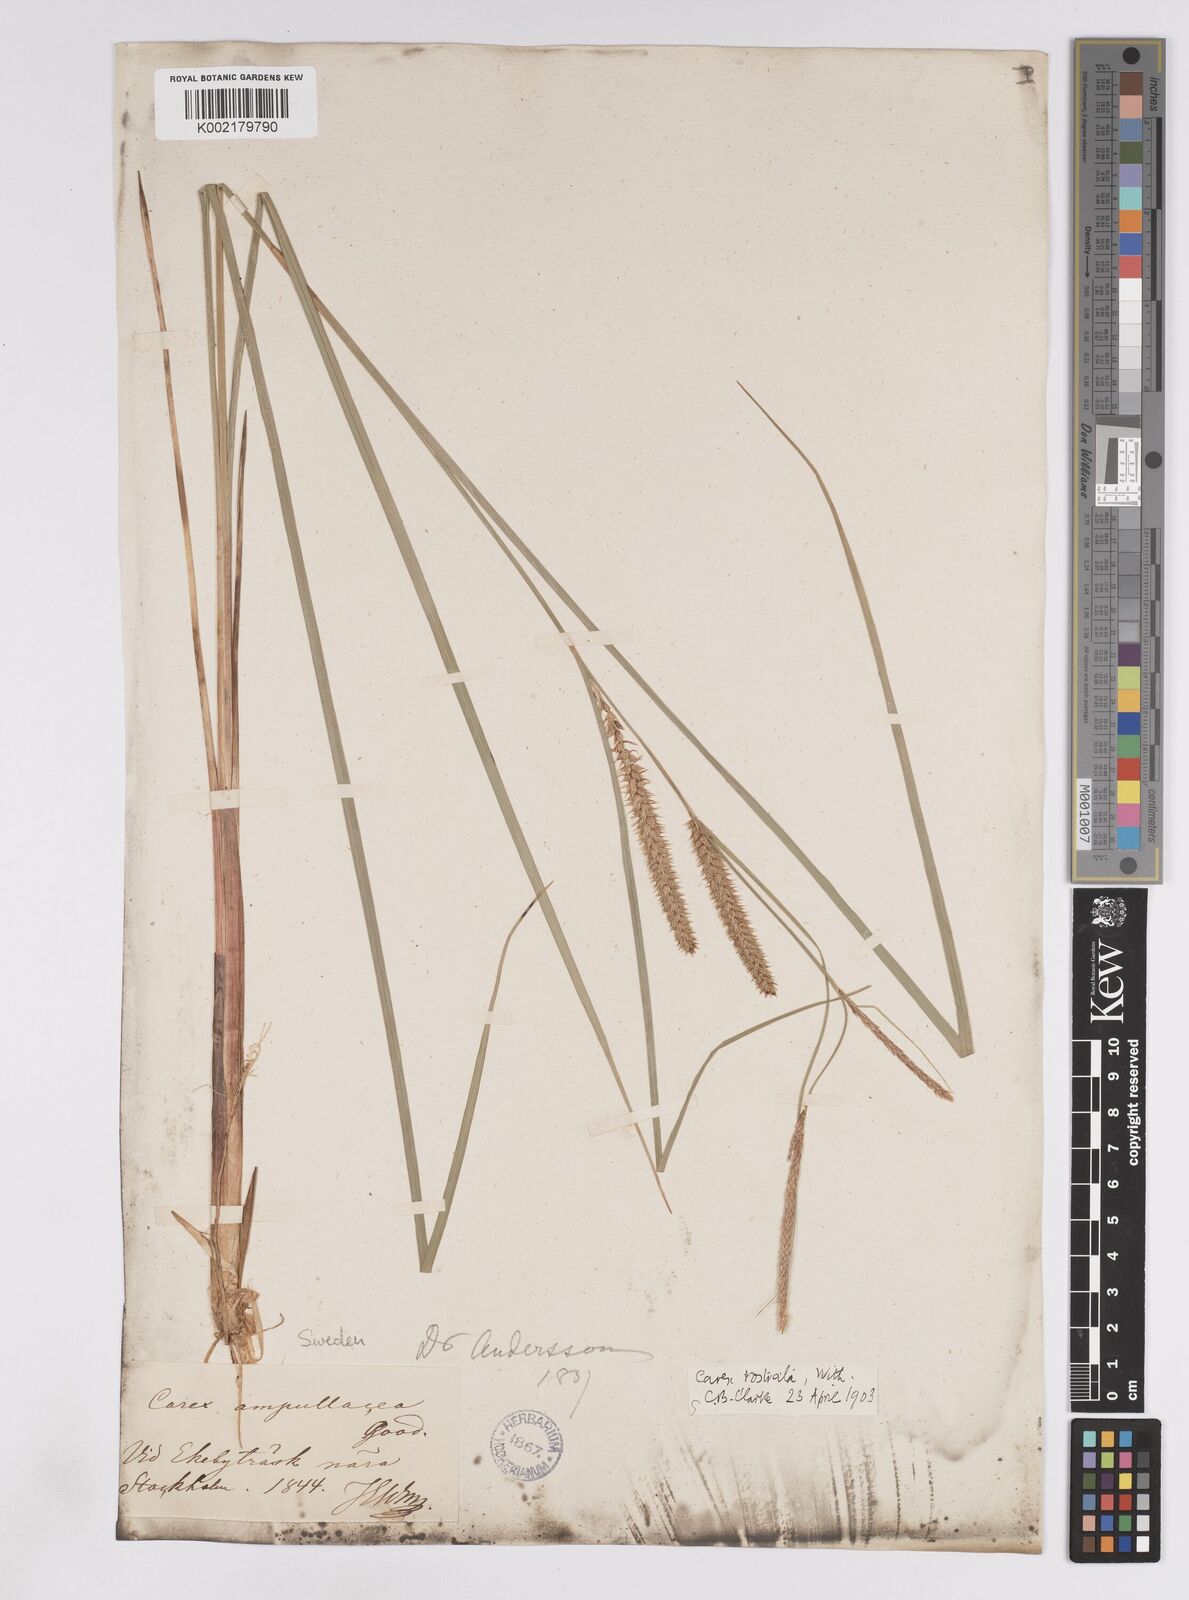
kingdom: Plantae
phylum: Tracheophyta
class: Liliopsida
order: Poales
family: Cyperaceae
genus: Carex
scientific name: Carex rostrata
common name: Bottle sedge
